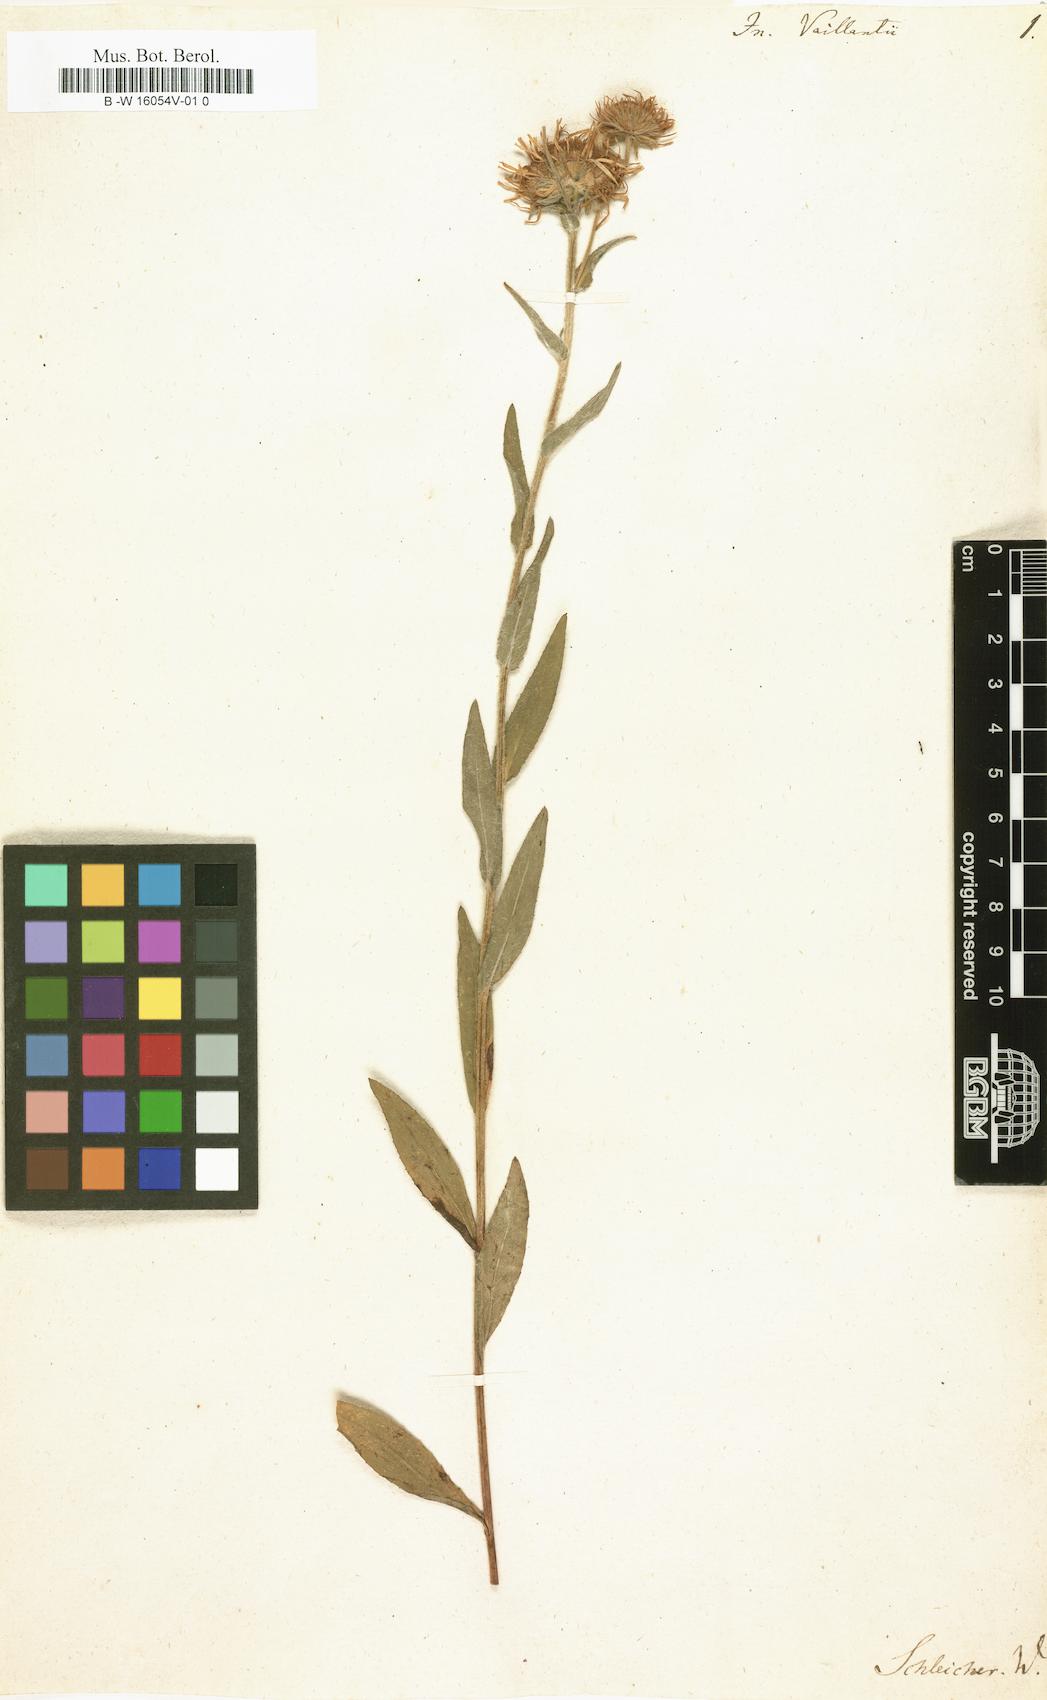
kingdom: Plantae
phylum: Tracheophyta
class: Magnoliopsida
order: Asterales
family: Asteraceae
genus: Pentanema
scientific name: Pentanema helveticum
